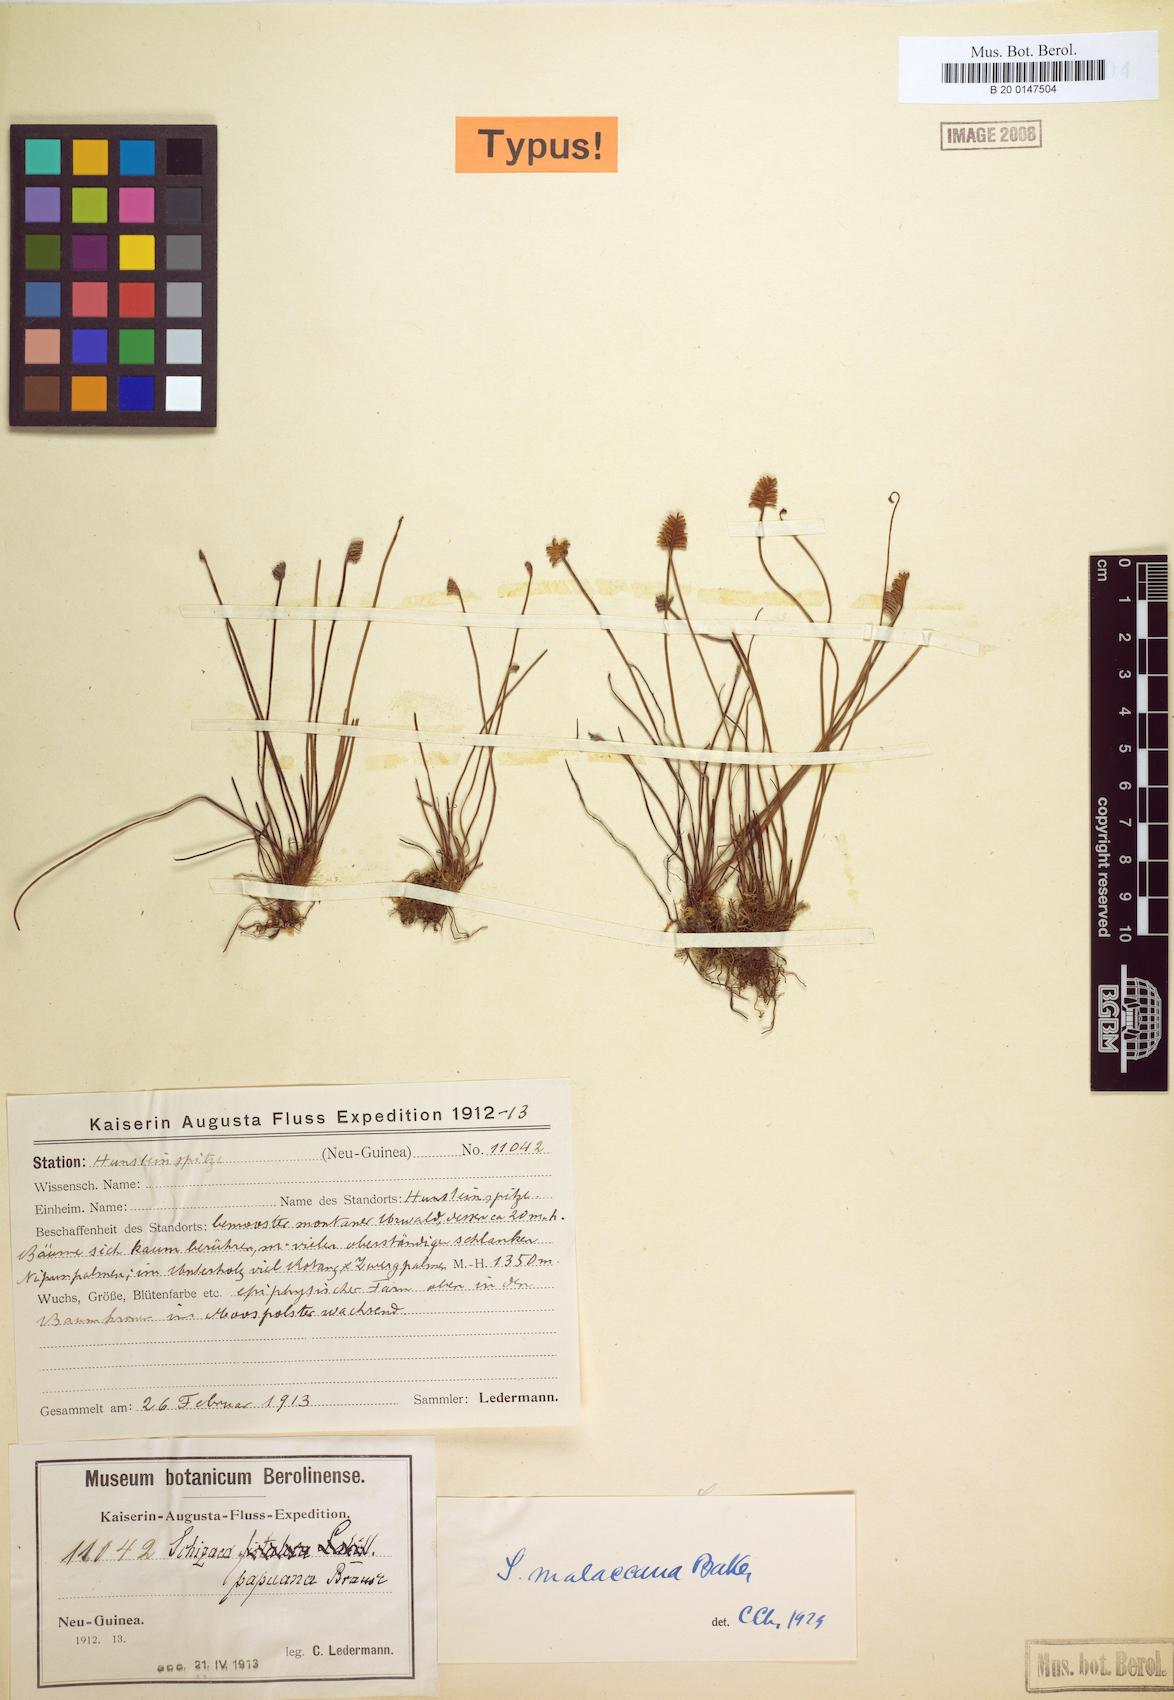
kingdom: Plantae
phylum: Tracheophyta
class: Polypodiopsida
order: Schizaeales
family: Schizaeaceae
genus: Microschizaea
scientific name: Microschizaea malaccana
